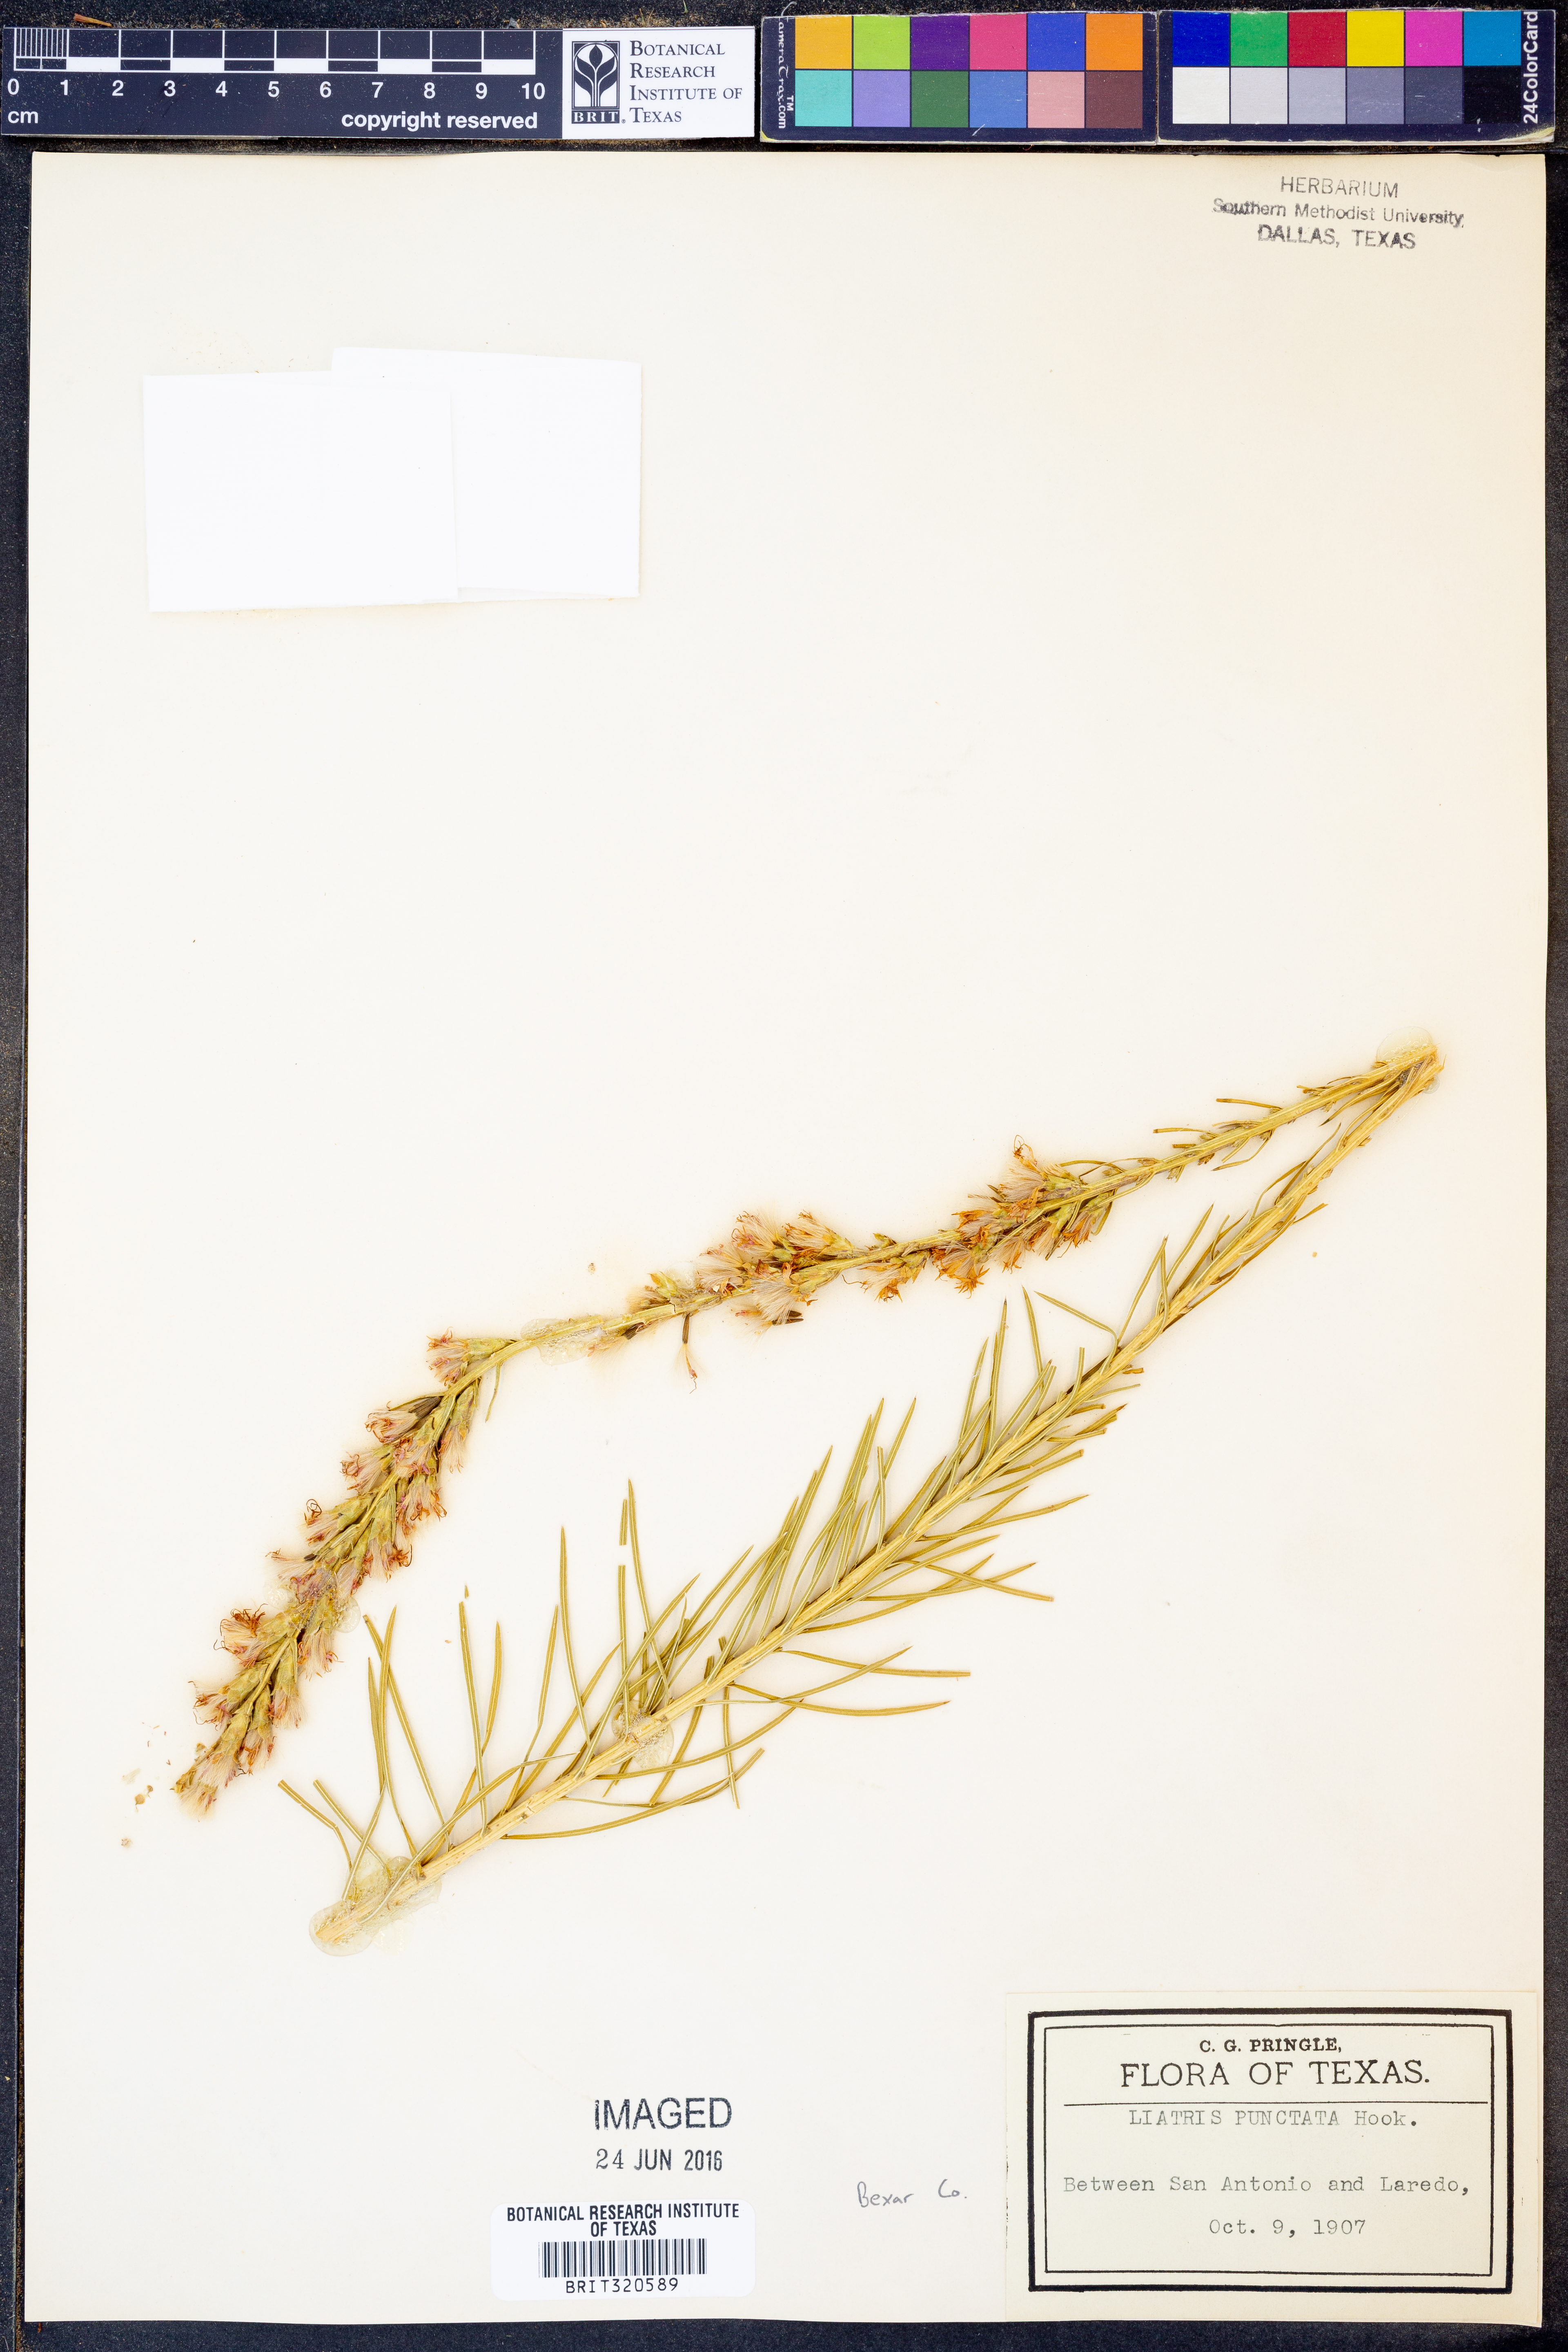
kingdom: Plantae
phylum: Tracheophyta
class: Magnoliopsida
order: Asterales
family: Asteraceae
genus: Liatris
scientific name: Liatris punctata
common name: Dotted gayfeather
